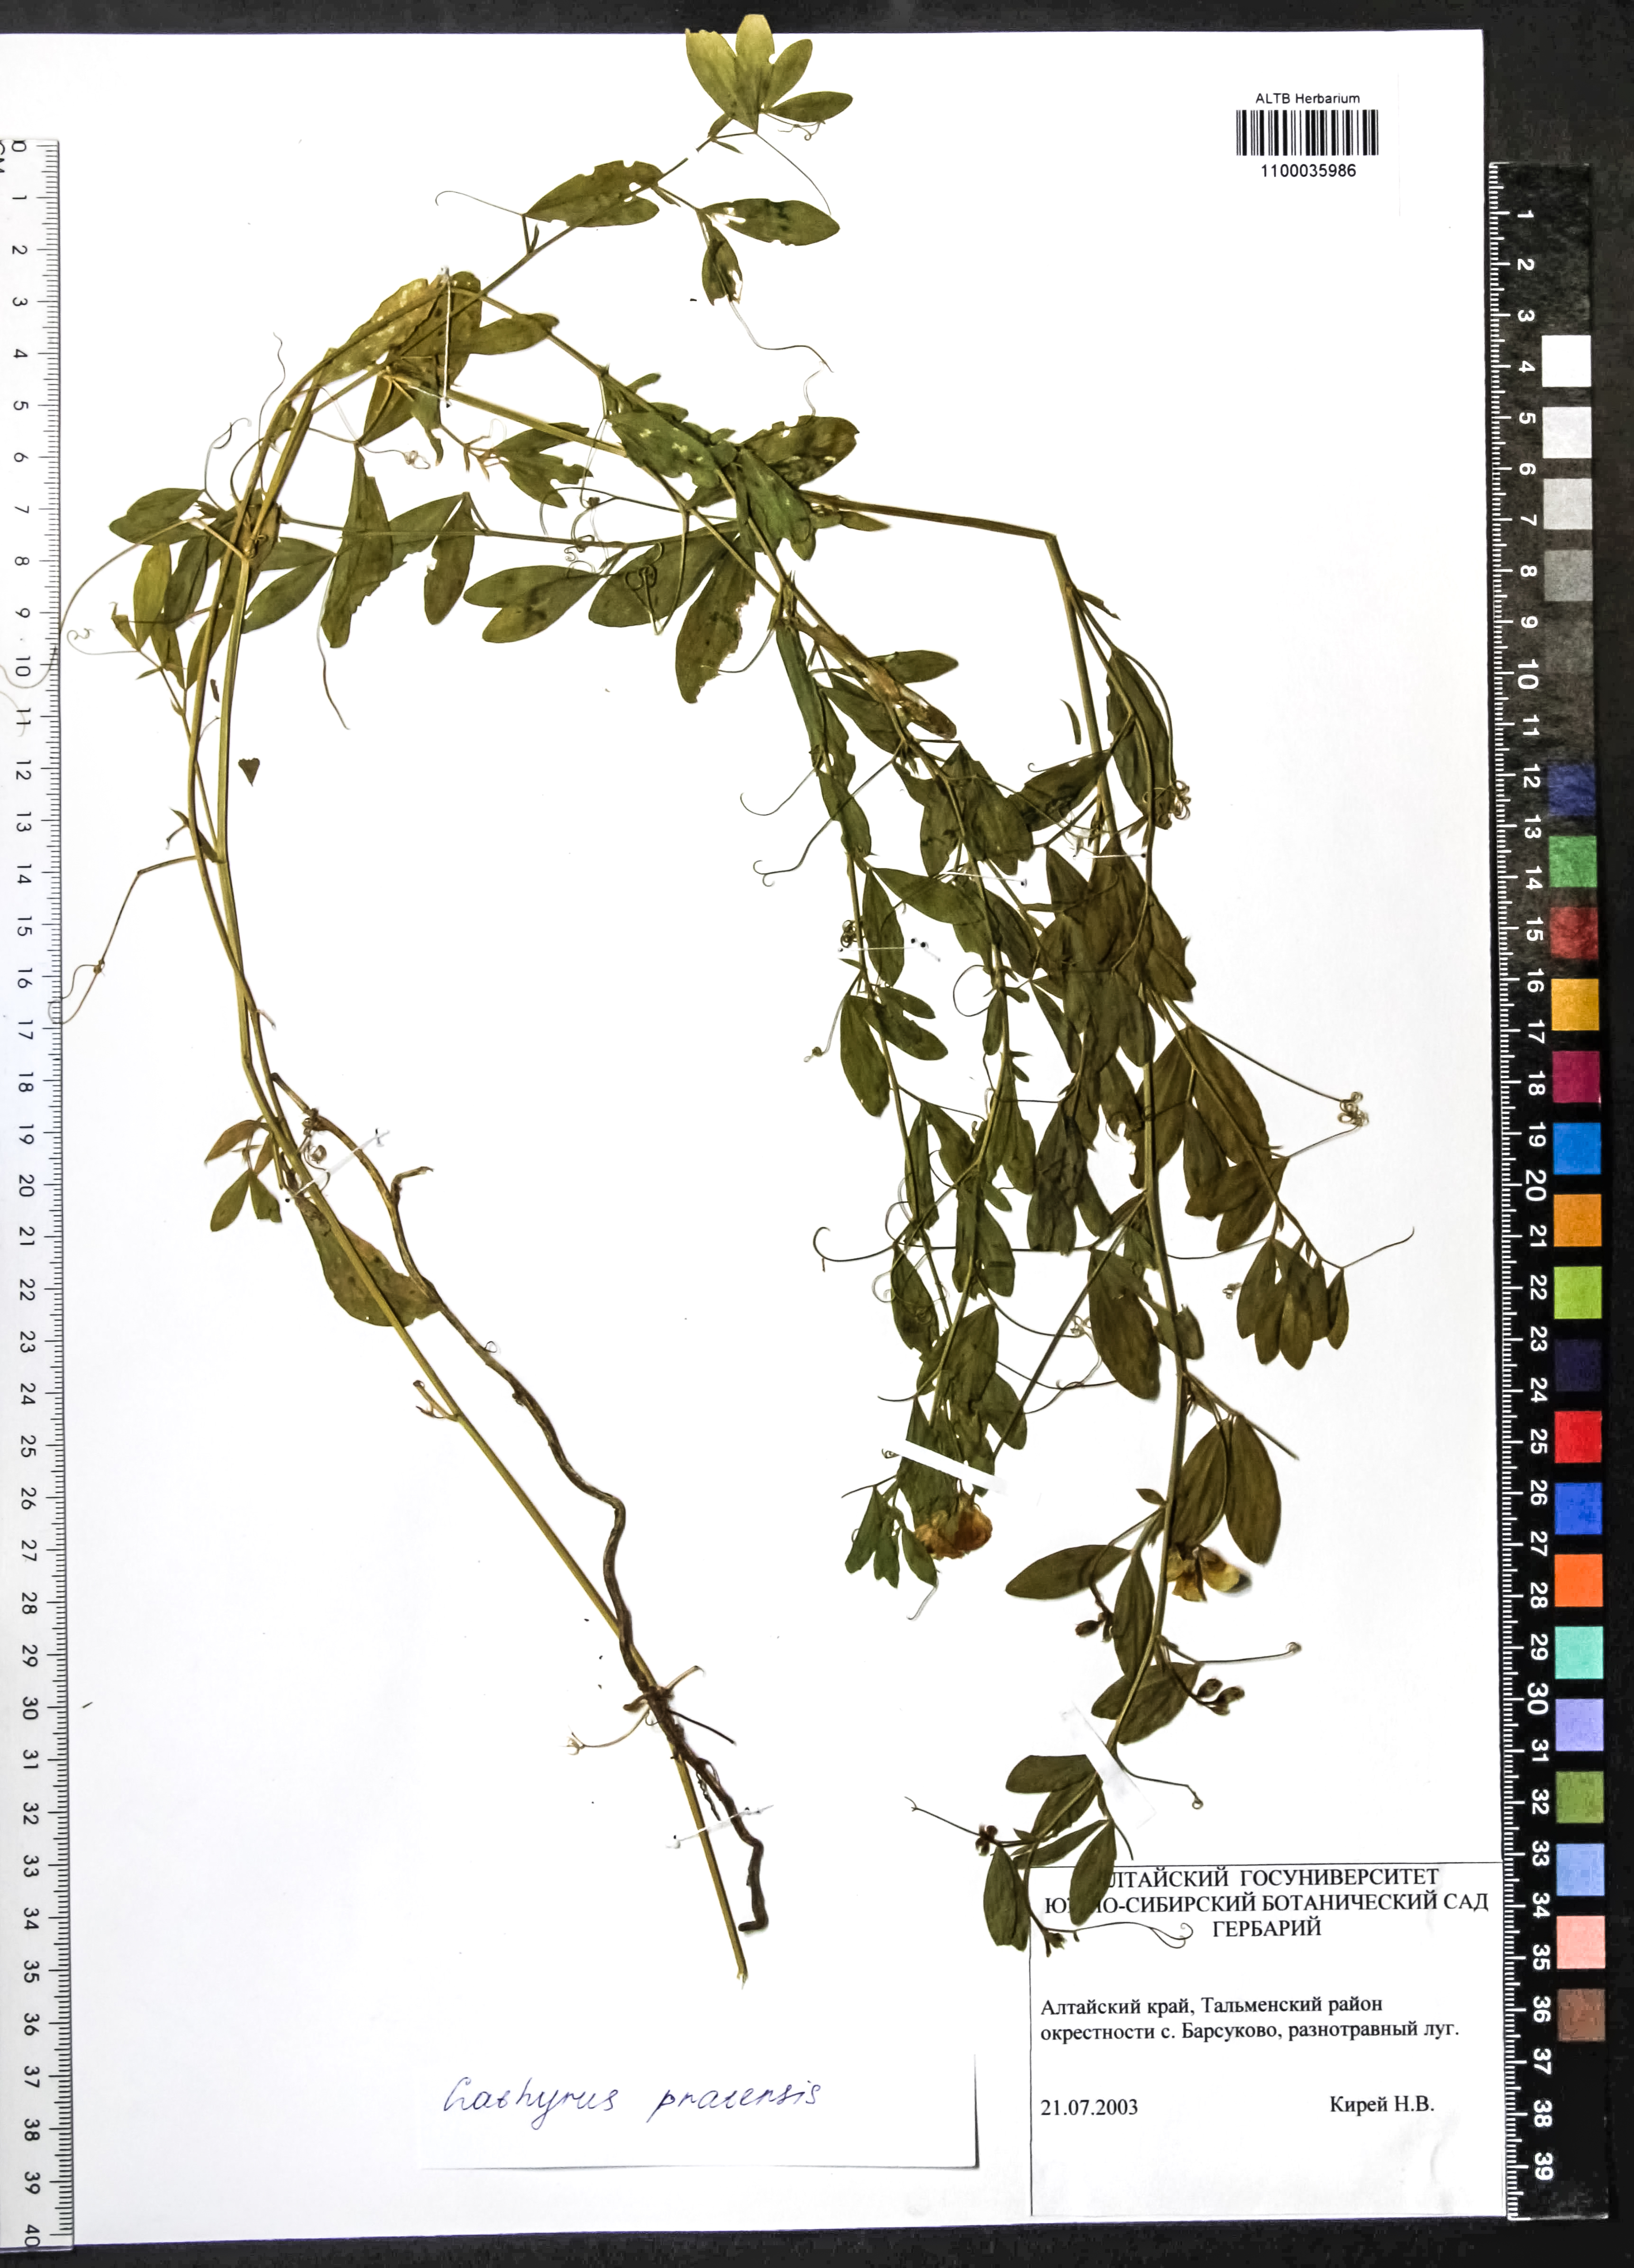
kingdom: Plantae
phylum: Tracheophyta
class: Magnoliopsida
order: Fabales
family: Fabaceae
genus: Lathyrus
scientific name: Lathyrus pratensis
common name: Meadow vetchling
